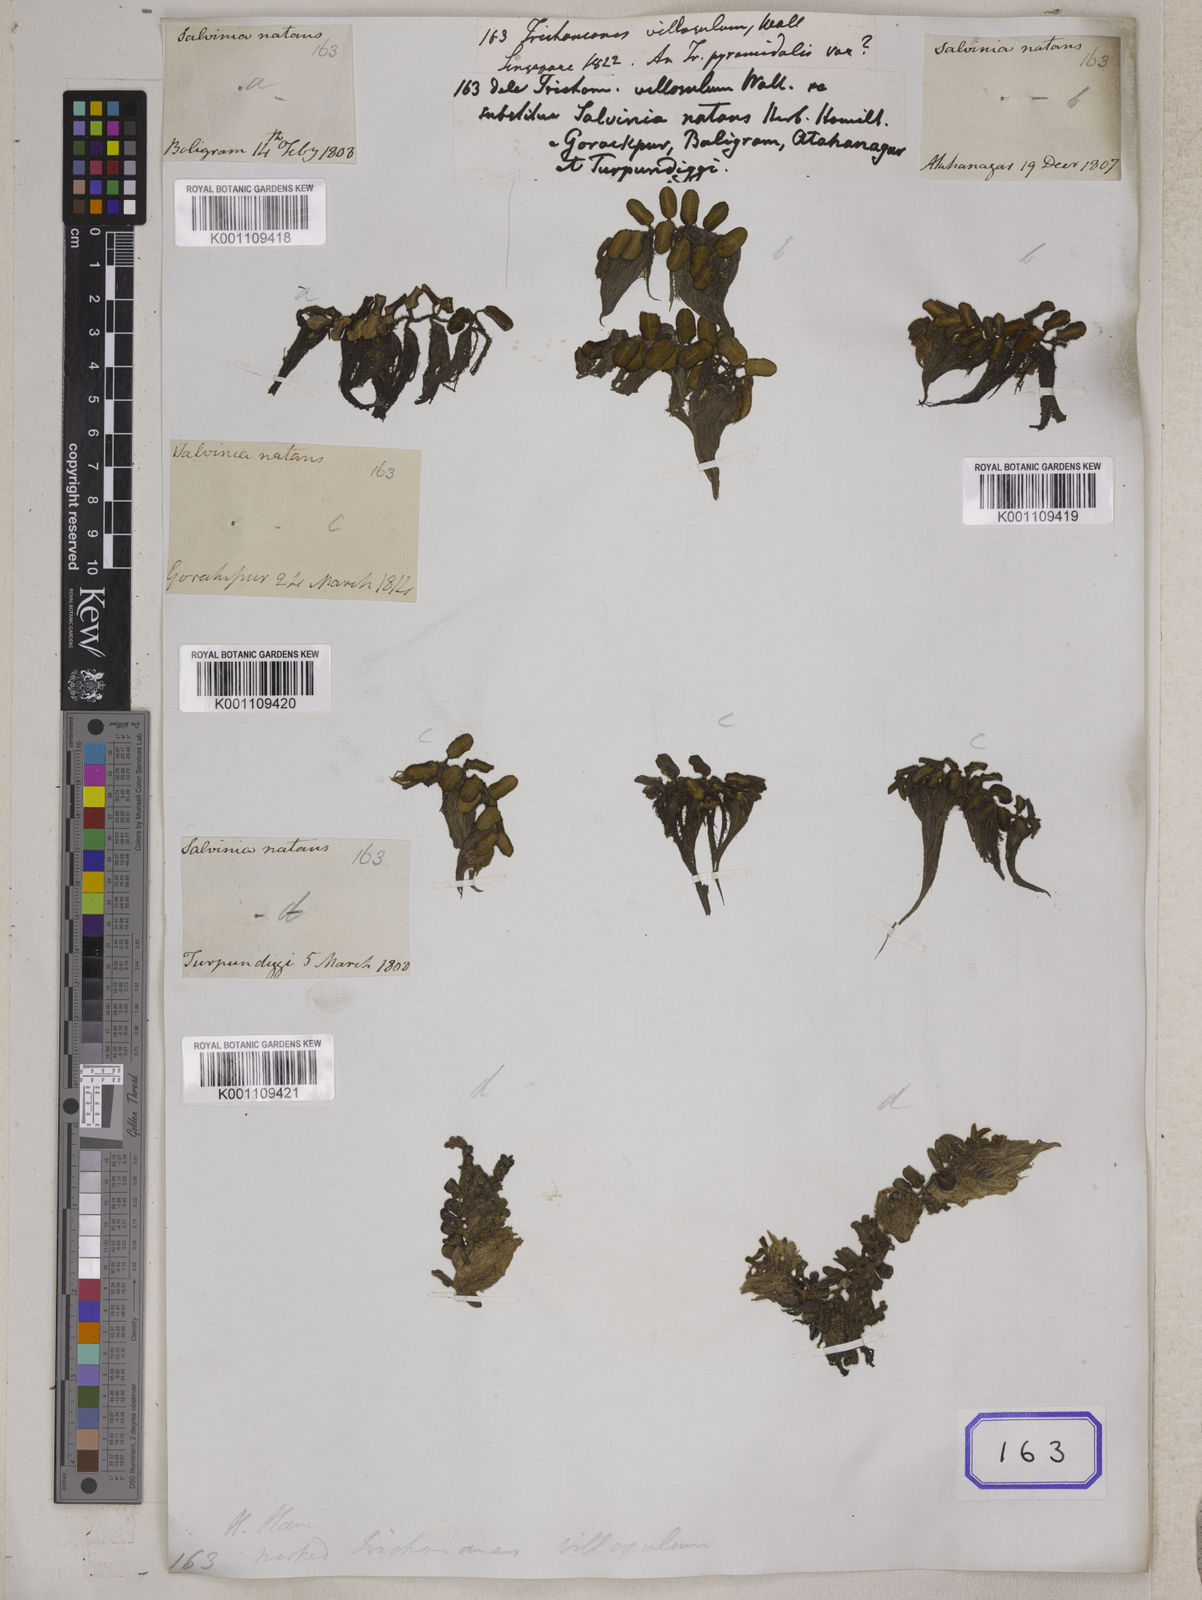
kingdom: Plantae
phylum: Tracheophyta
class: Polypodiopsida
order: Salviniales
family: Salviniaceae
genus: Salvinia
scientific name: Salvinia natans
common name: Floating fern
